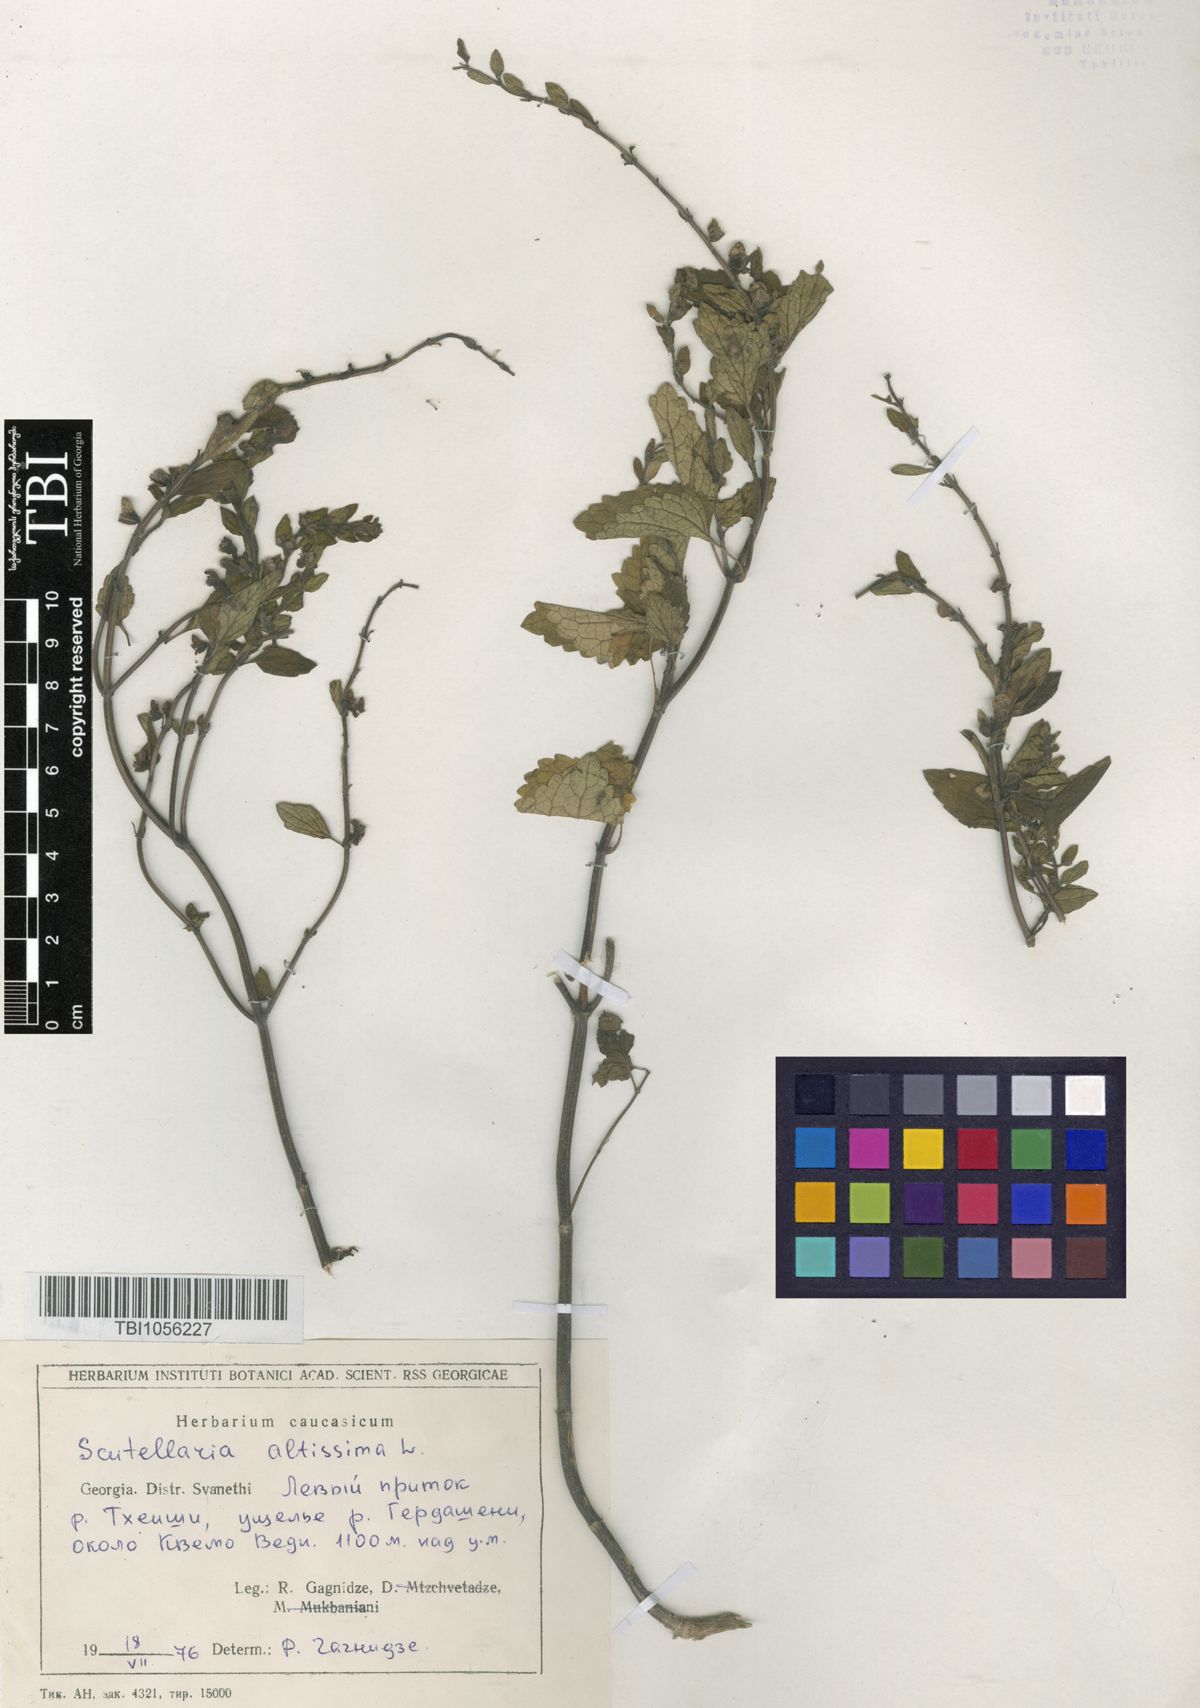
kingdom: Plantae
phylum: Tracheophyta
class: Magnoliopsida
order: Lamiales
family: Lamiaceae
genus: Scutellaria
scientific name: Scutellaria altissima
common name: Somerset skullcap
